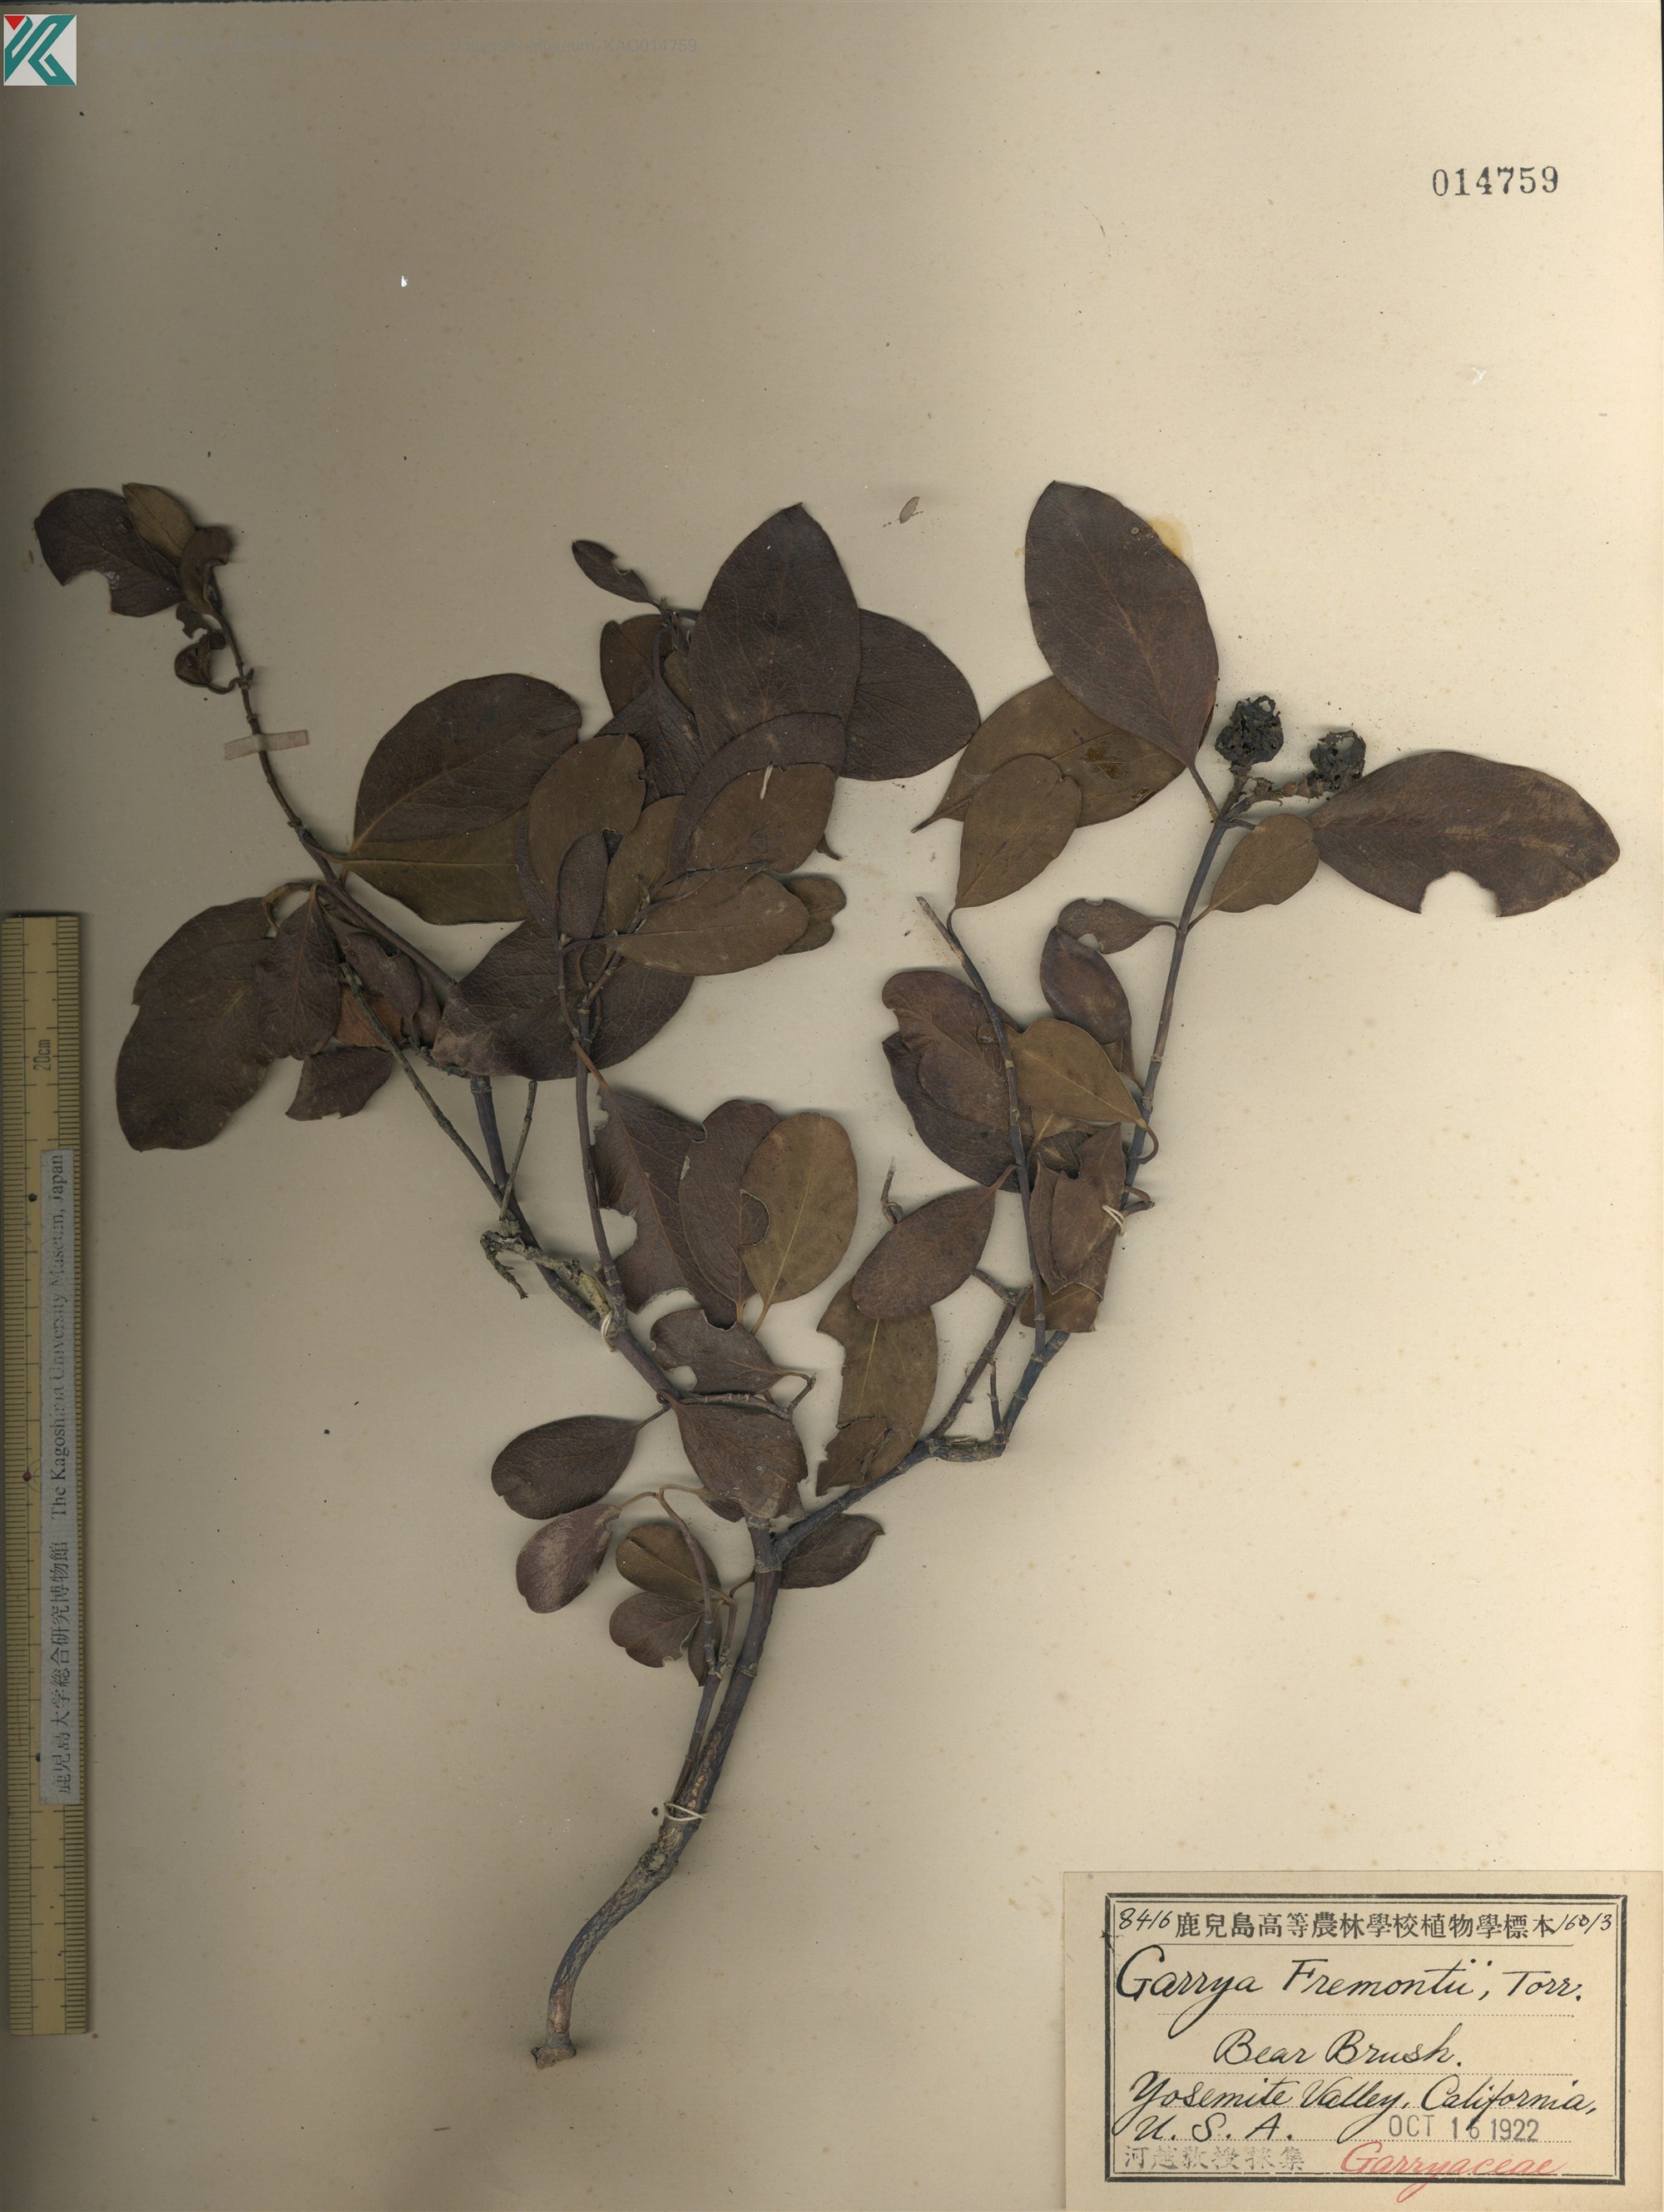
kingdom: Plantae
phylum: Tracheophyta
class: Magnoliopsida
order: Garryales
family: Garryaceae
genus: Garrya
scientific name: Garrya fremontii
